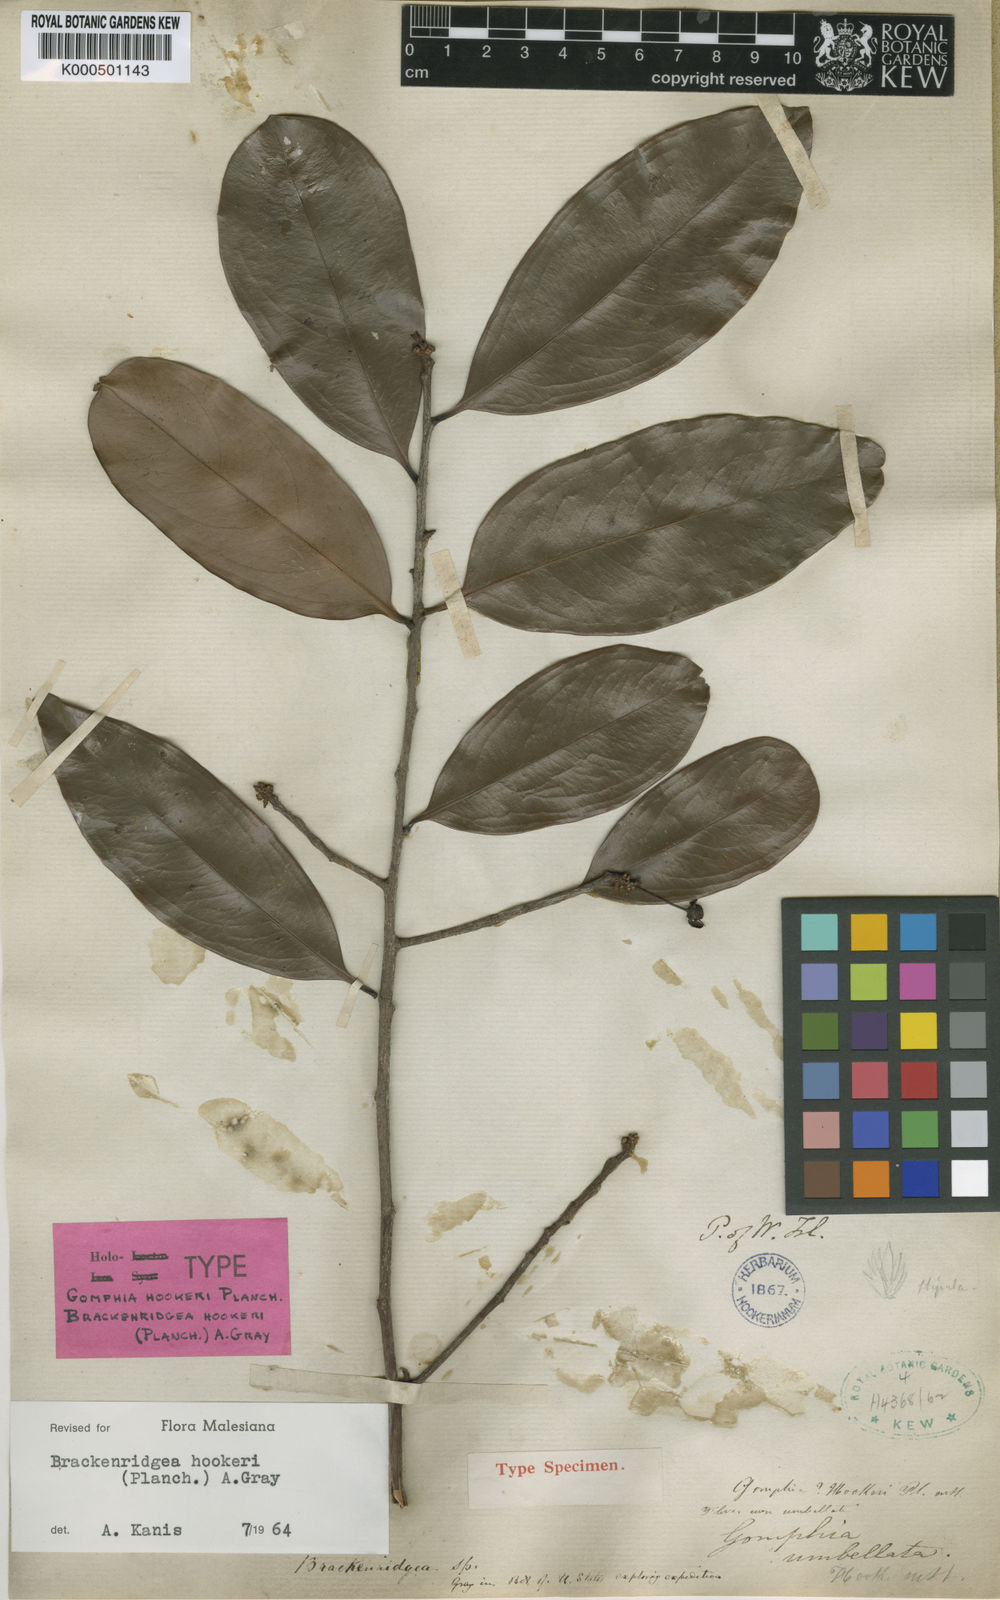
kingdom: Plantae
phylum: Tracheophyta
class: Magnoliopsida
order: Malpighiales
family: Ochnaceae
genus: Brackenridgea
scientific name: Brackenridgea elegantissima
